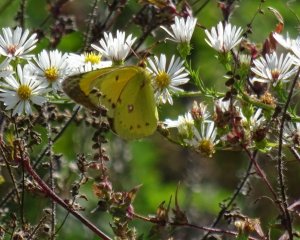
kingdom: Animalia
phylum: Arthropoda
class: Insecta
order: Lepidoptera
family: Pieridae
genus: Colias
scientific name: Colias eurytheme
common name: Orange Sulphur
